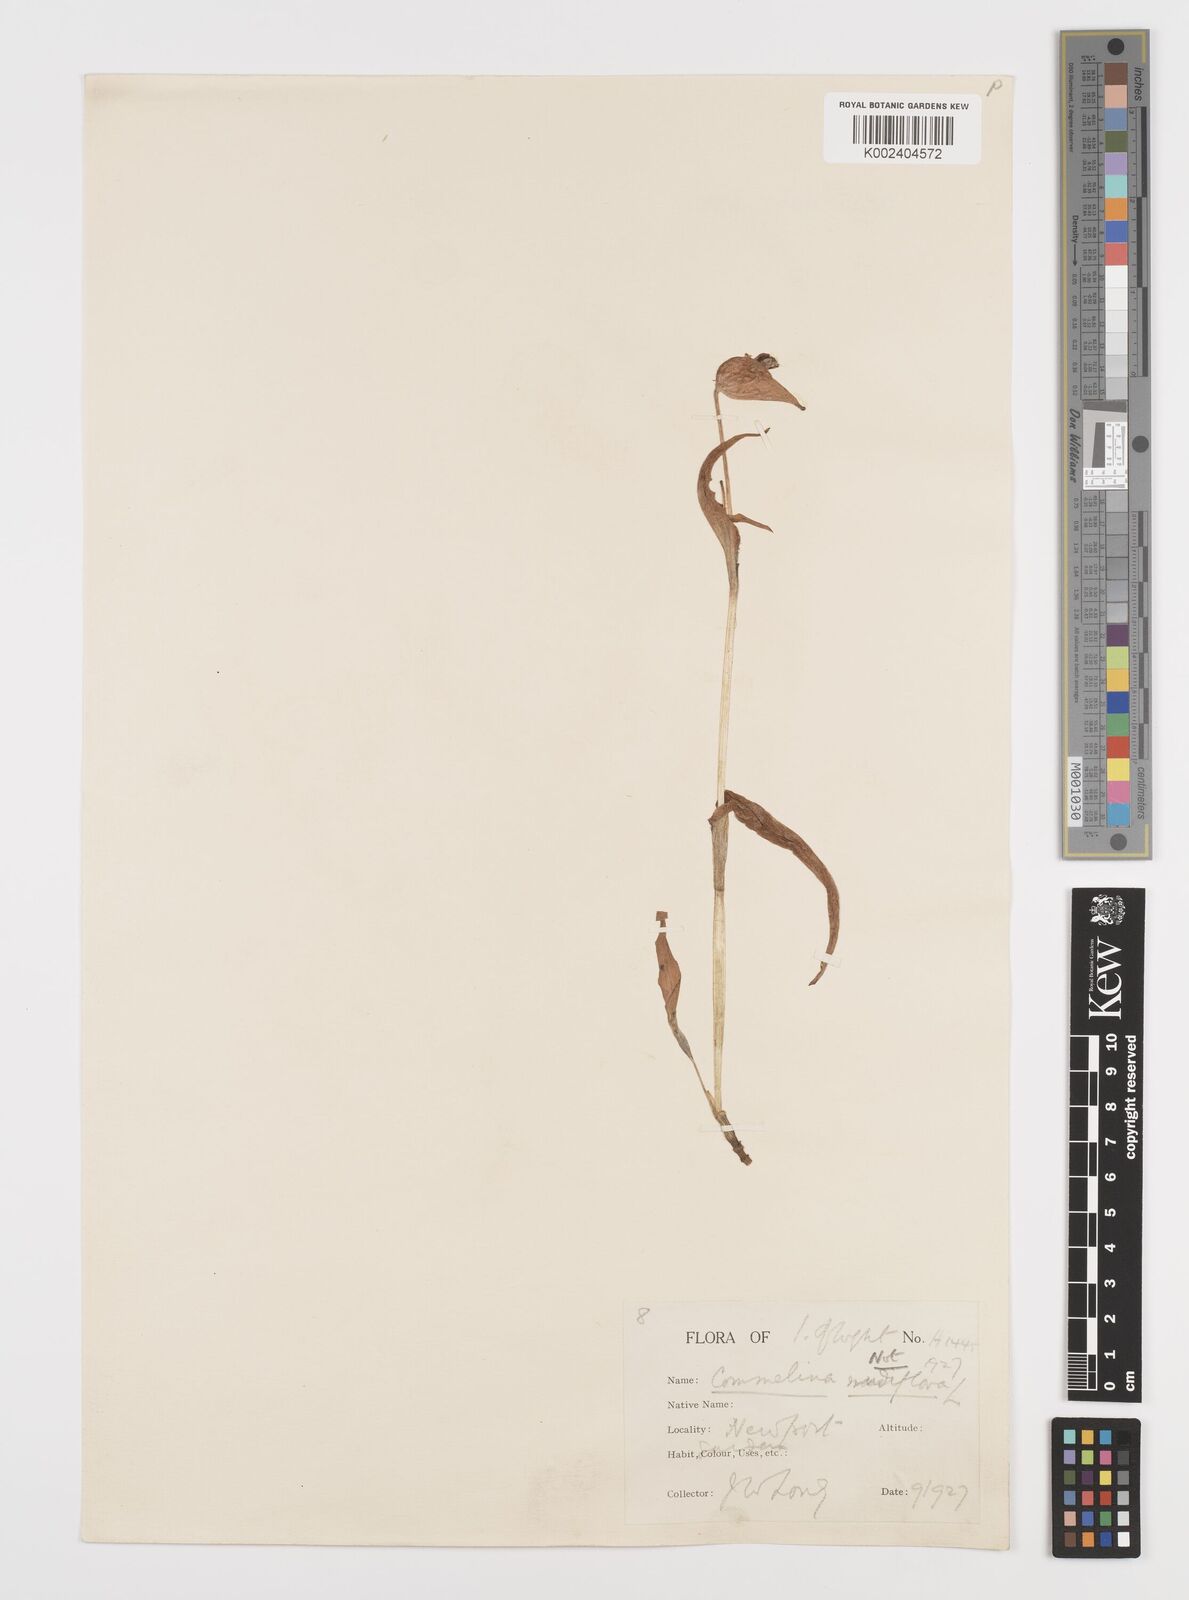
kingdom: Plantae
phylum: Tracheophyta
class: Liliopsida
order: Commelinales
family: Commelinaceae
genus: Murdannia
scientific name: Murdannia nudiflora
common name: Nakedstem dewflower
